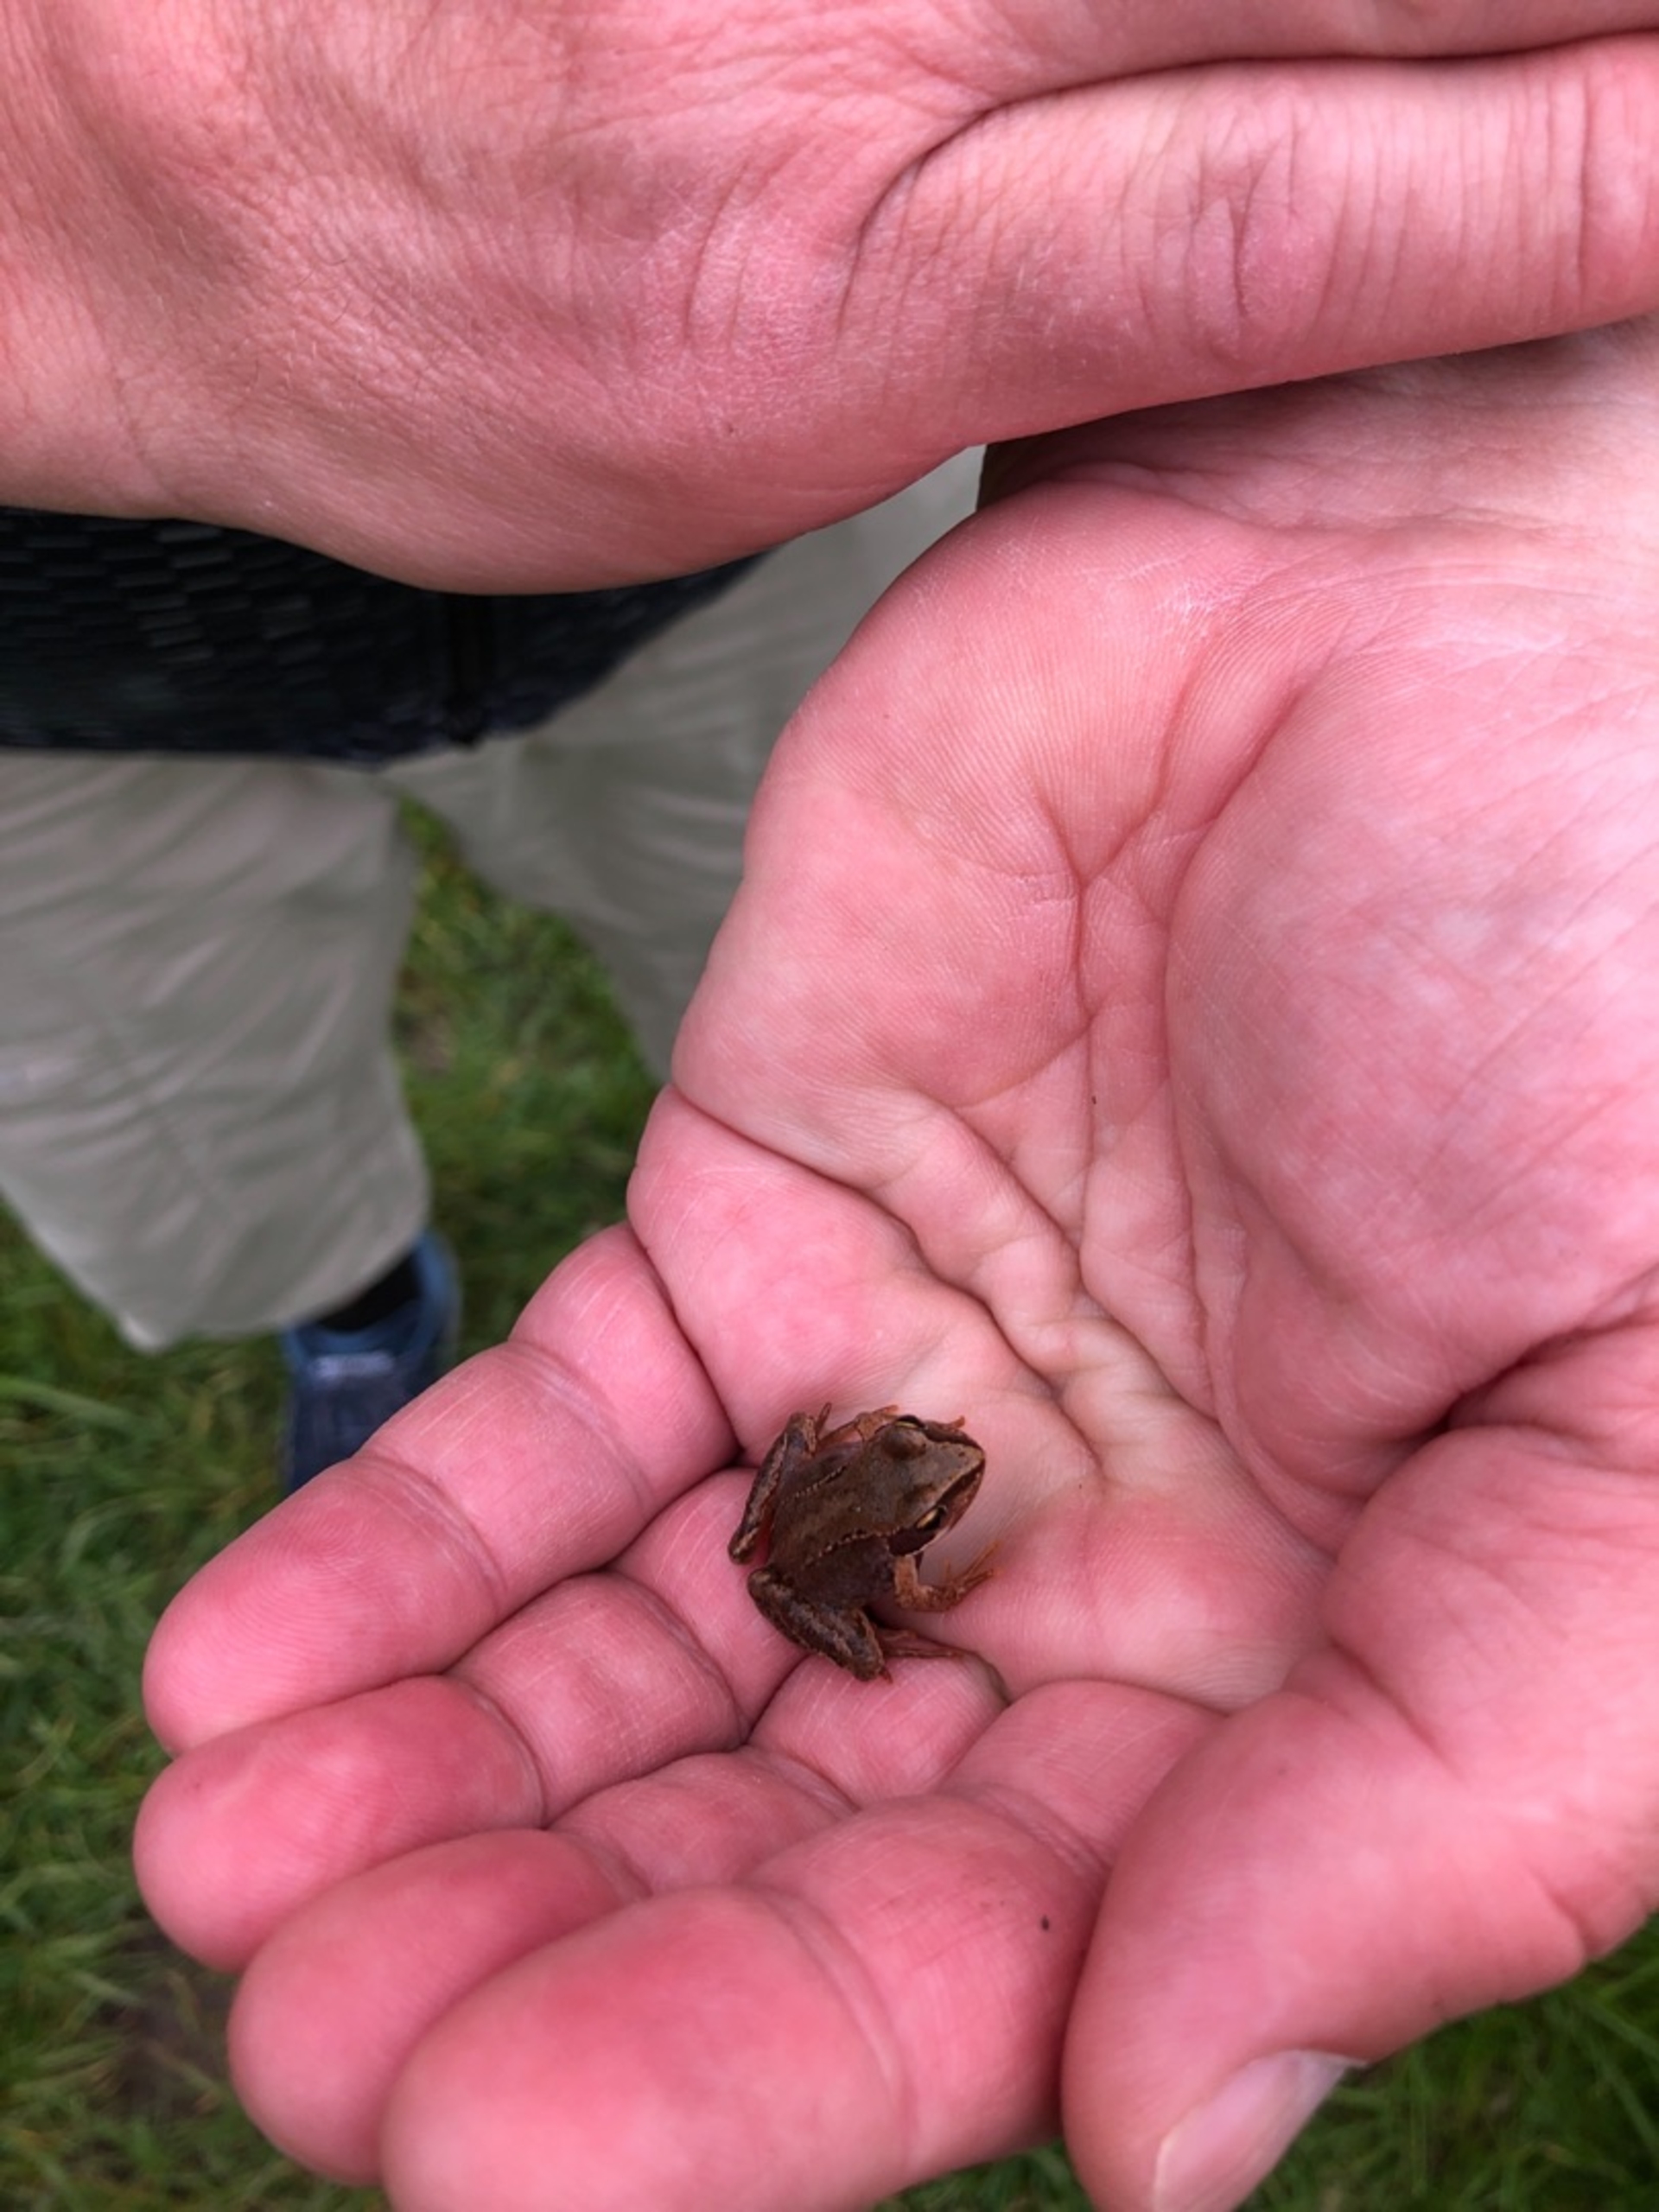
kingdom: Animalia
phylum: Chordata
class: Amphibia
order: Anura
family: Ranidae
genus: Rana
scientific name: Rana temporaria
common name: Butsnudet frø
